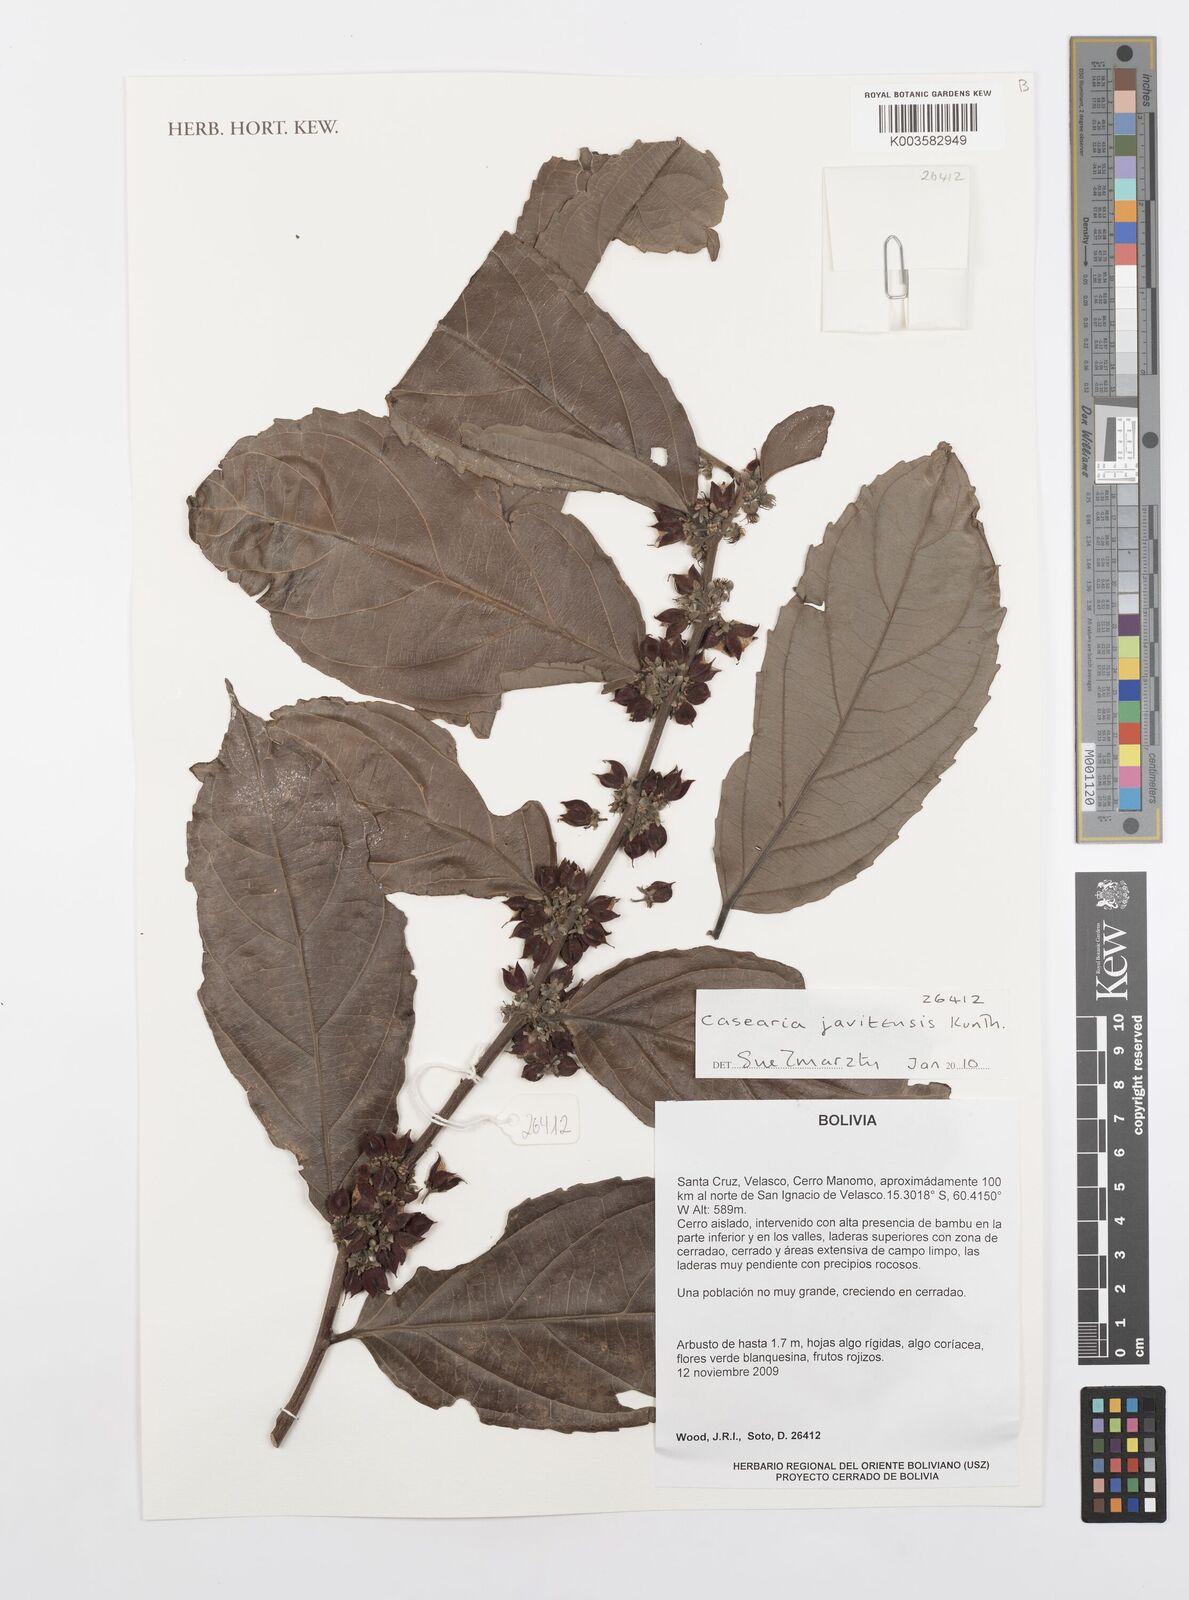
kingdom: Plantae
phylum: Tracheophyta
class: Magnoliopsida
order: Malpighiales
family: Salicaceae
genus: Piparea
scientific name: Piparea multiflora
